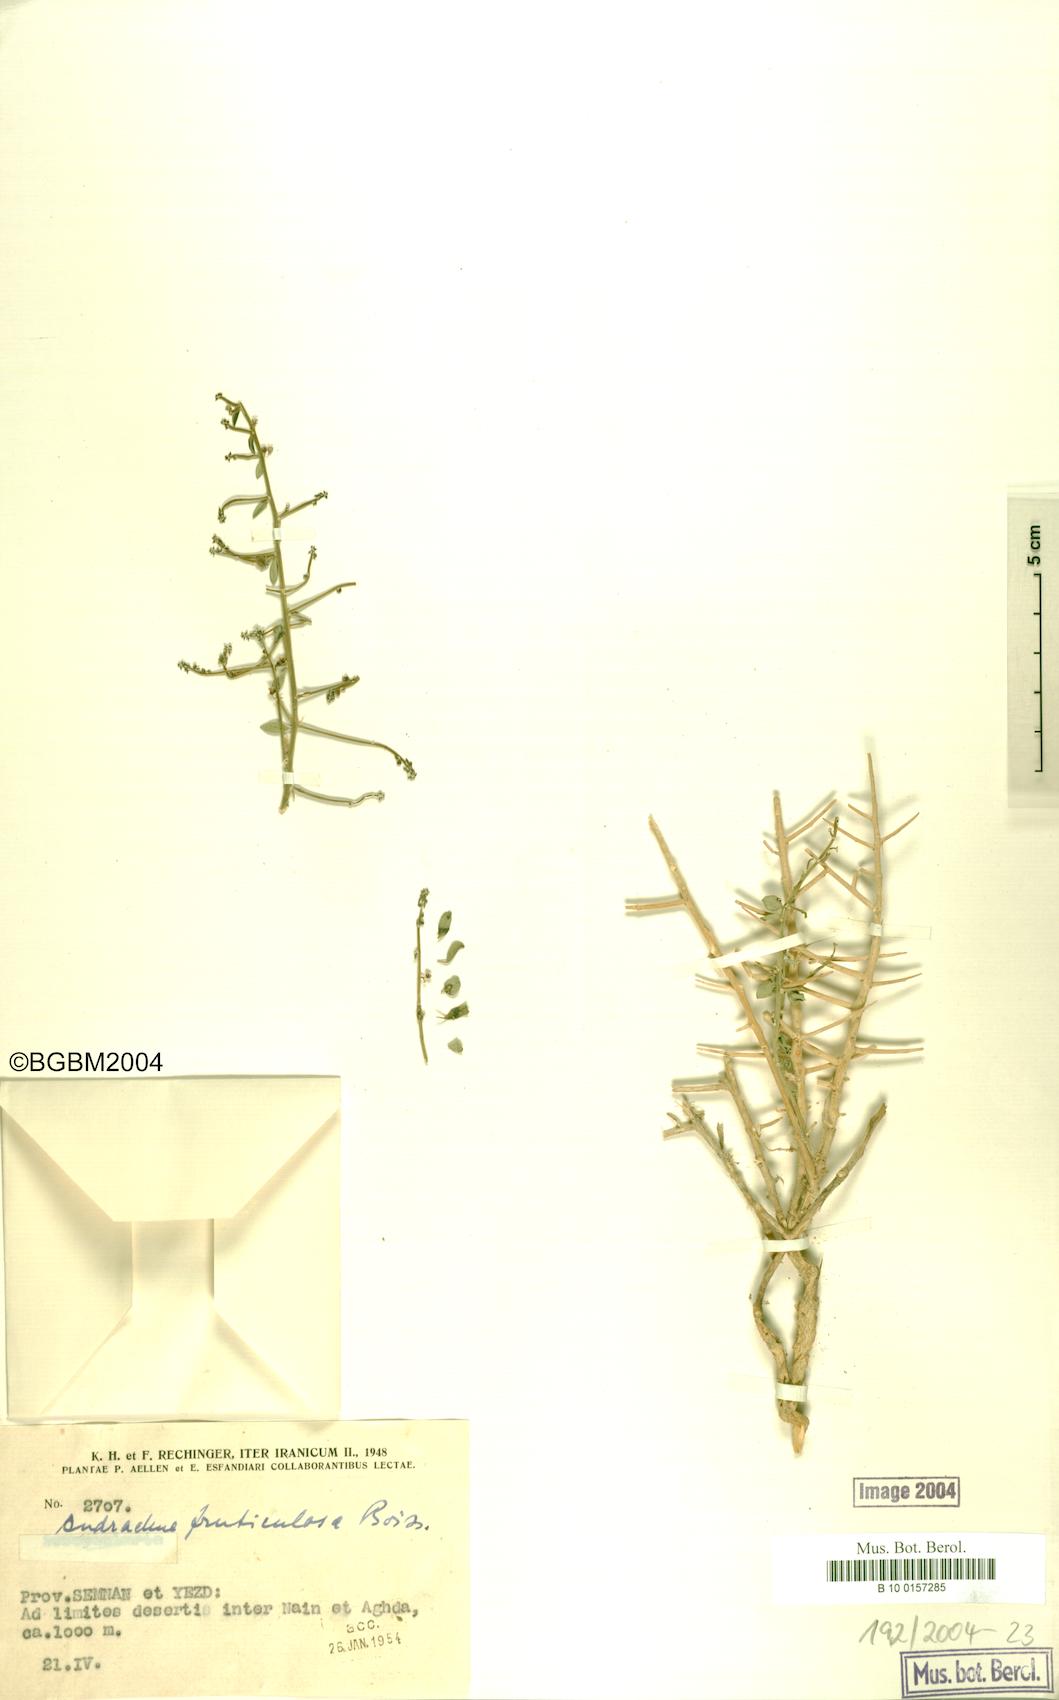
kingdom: Plantae
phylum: Tracheophyta
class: Magnoliopsida
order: Malpighiales
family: Phyllanthaceae
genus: Andrachne
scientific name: Andrachne fruticulosa
